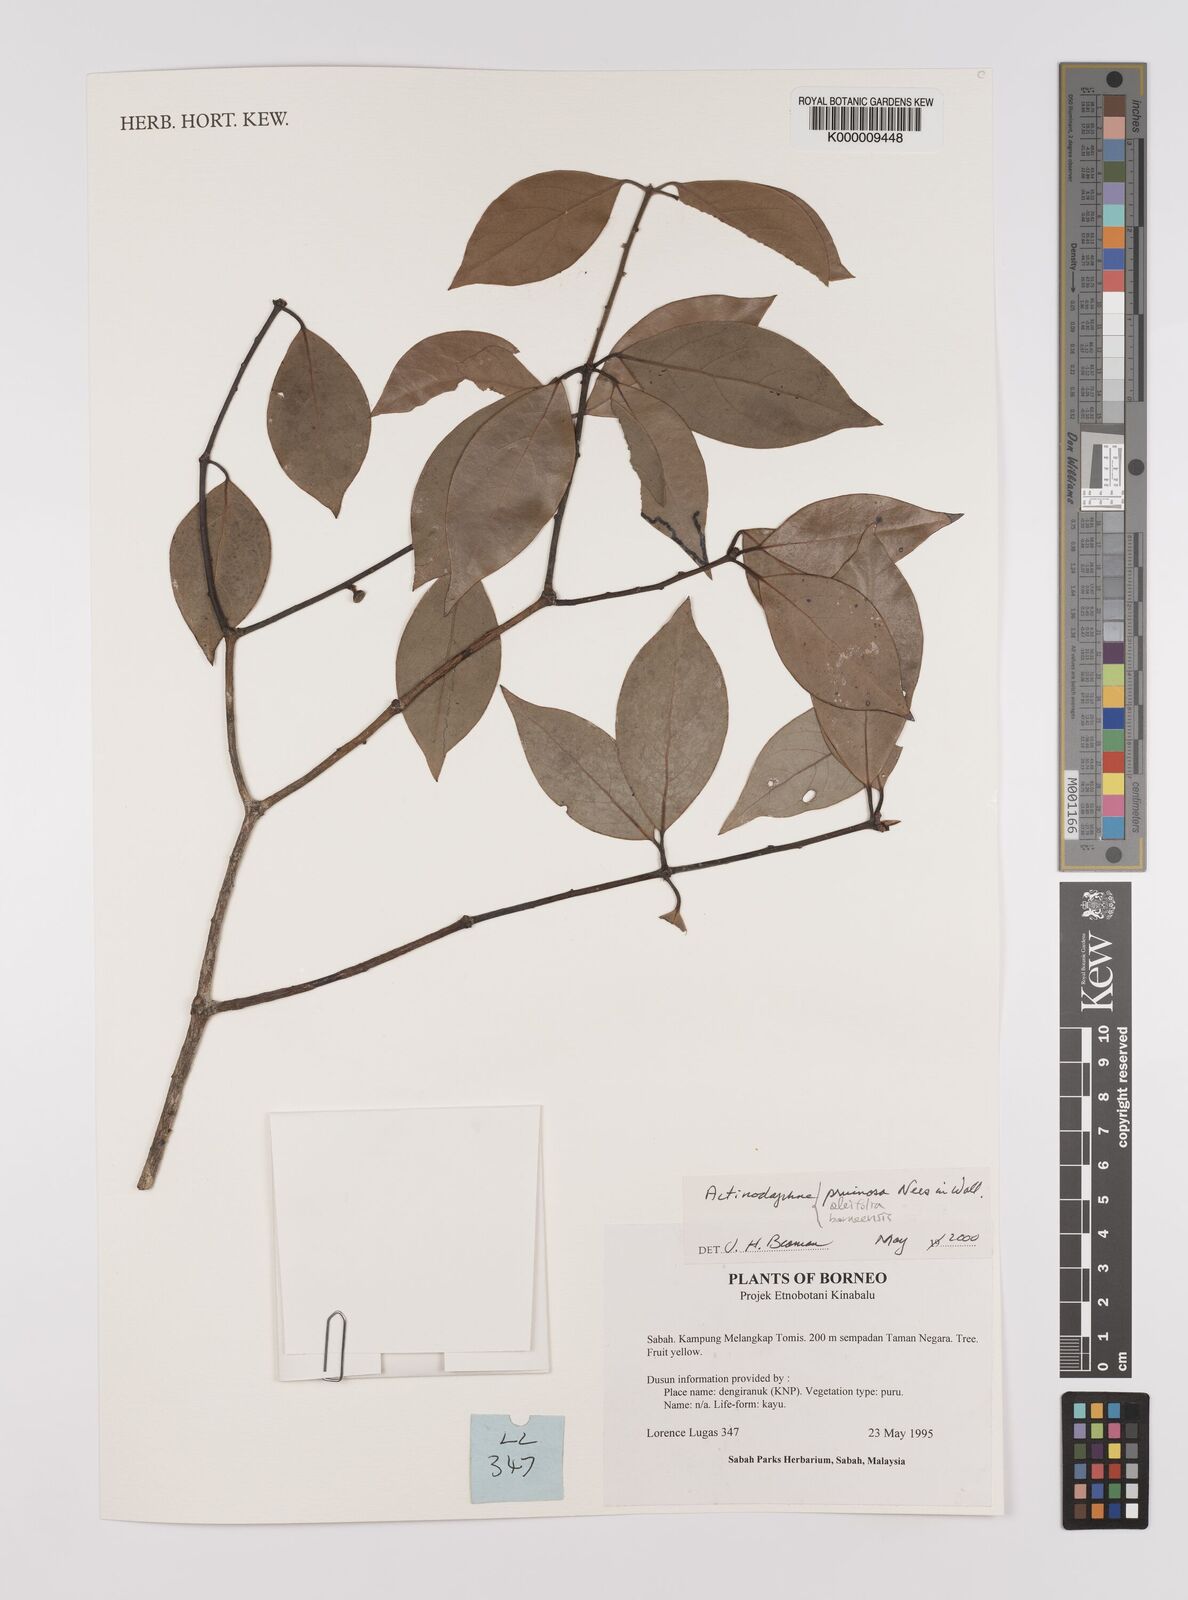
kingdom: Plantae
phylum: Tracheophyta
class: Magnoliopsida
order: Laurales
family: Lauraceae
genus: Actinodaphne
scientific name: Actinodaphne pruinosa
